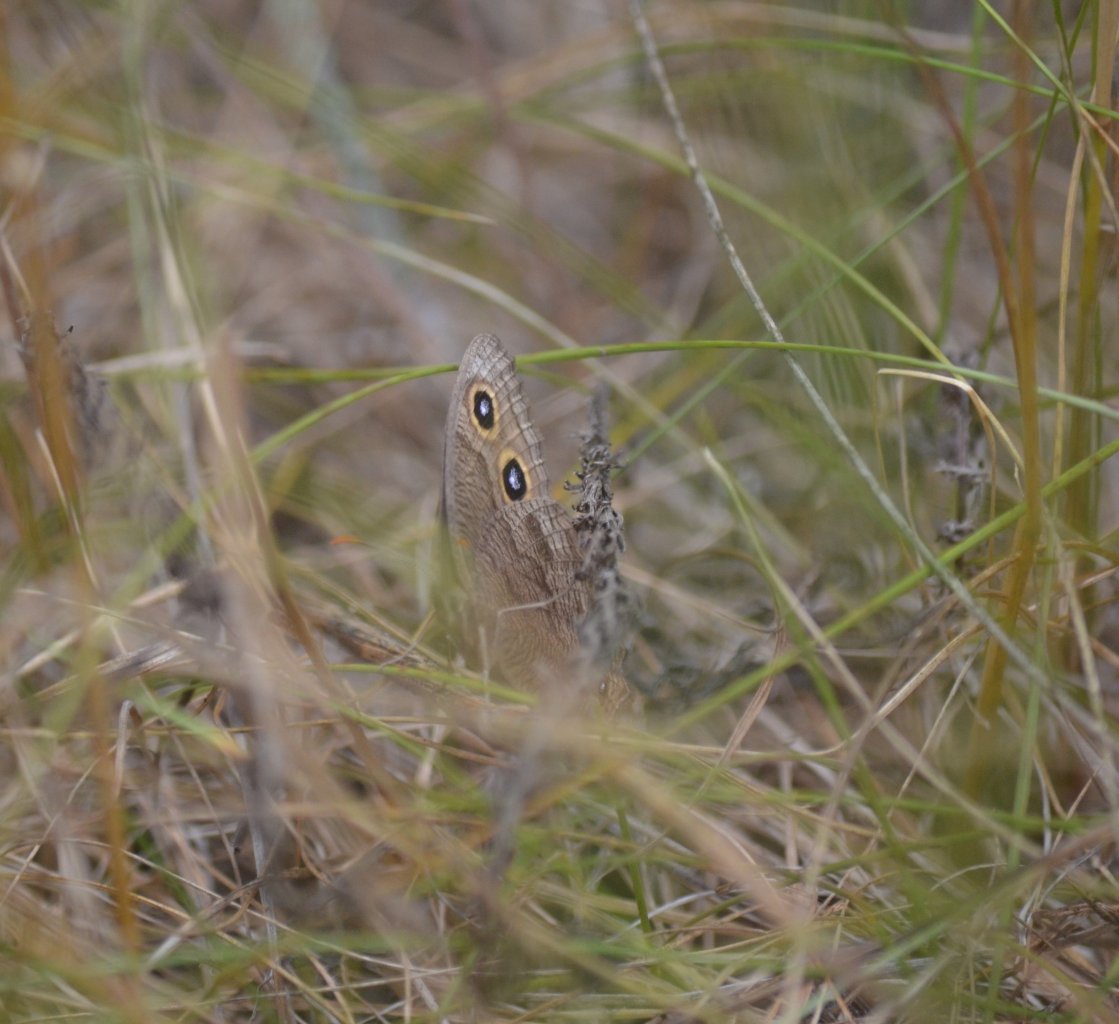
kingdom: Animalia
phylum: Arthropoda
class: Insecta
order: Lepidoptera
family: Nymphalidae
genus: Cercyonis
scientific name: Cercyonis pegala
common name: Common Wood-Nymph
